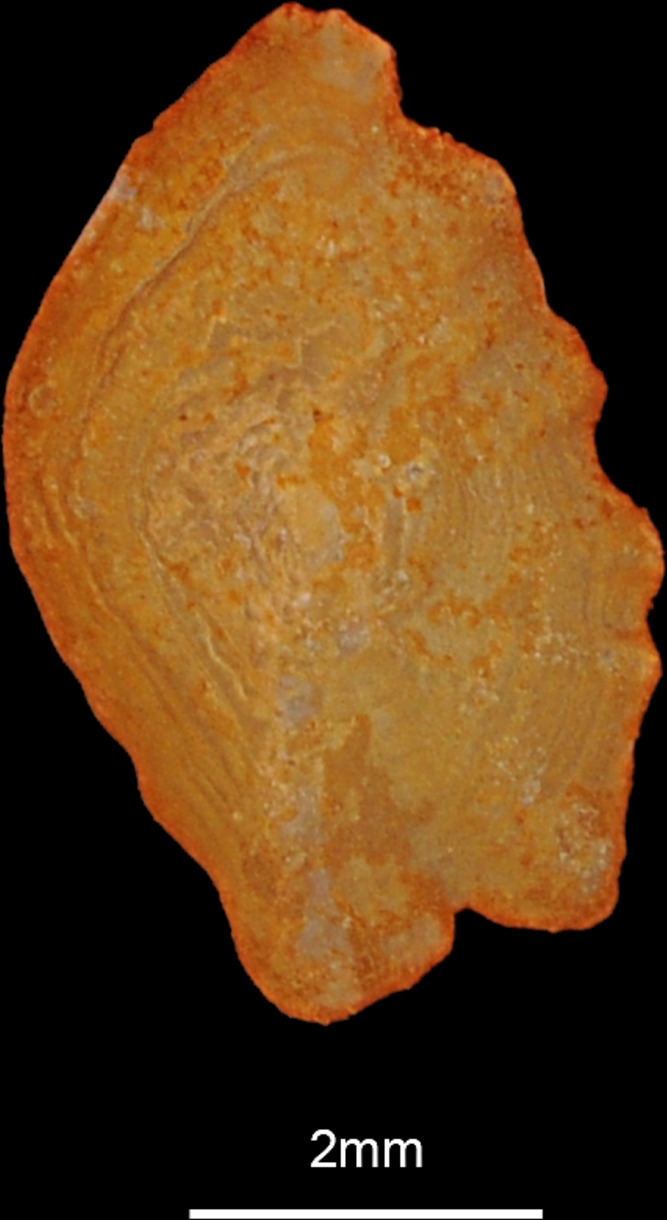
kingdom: Animalia
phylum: Chordata
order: Perciformes
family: Sparidae
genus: Spicara
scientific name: Spicara maena
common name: Blotched picarel
